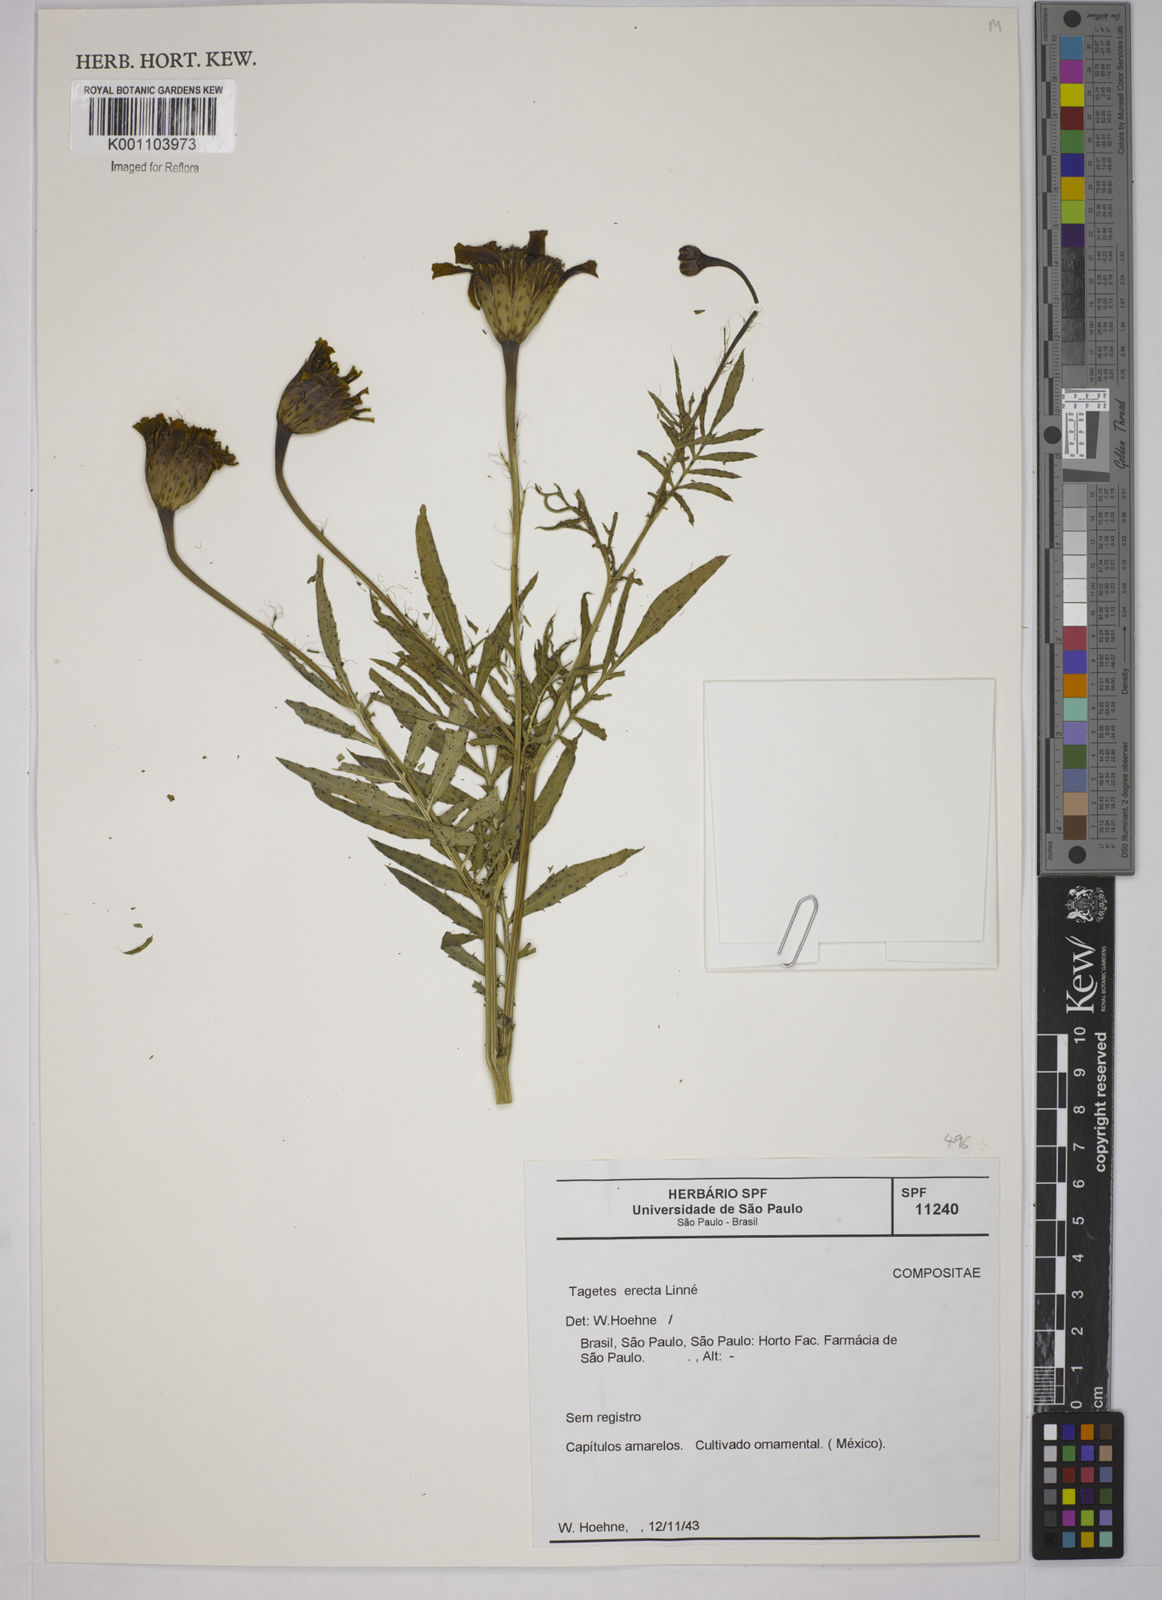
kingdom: Plantae
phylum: Tracheophyta
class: Magnoliopsida
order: Asterales
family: Asteraceae
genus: Tagetes
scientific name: Tagetes erecta
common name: African marigold
